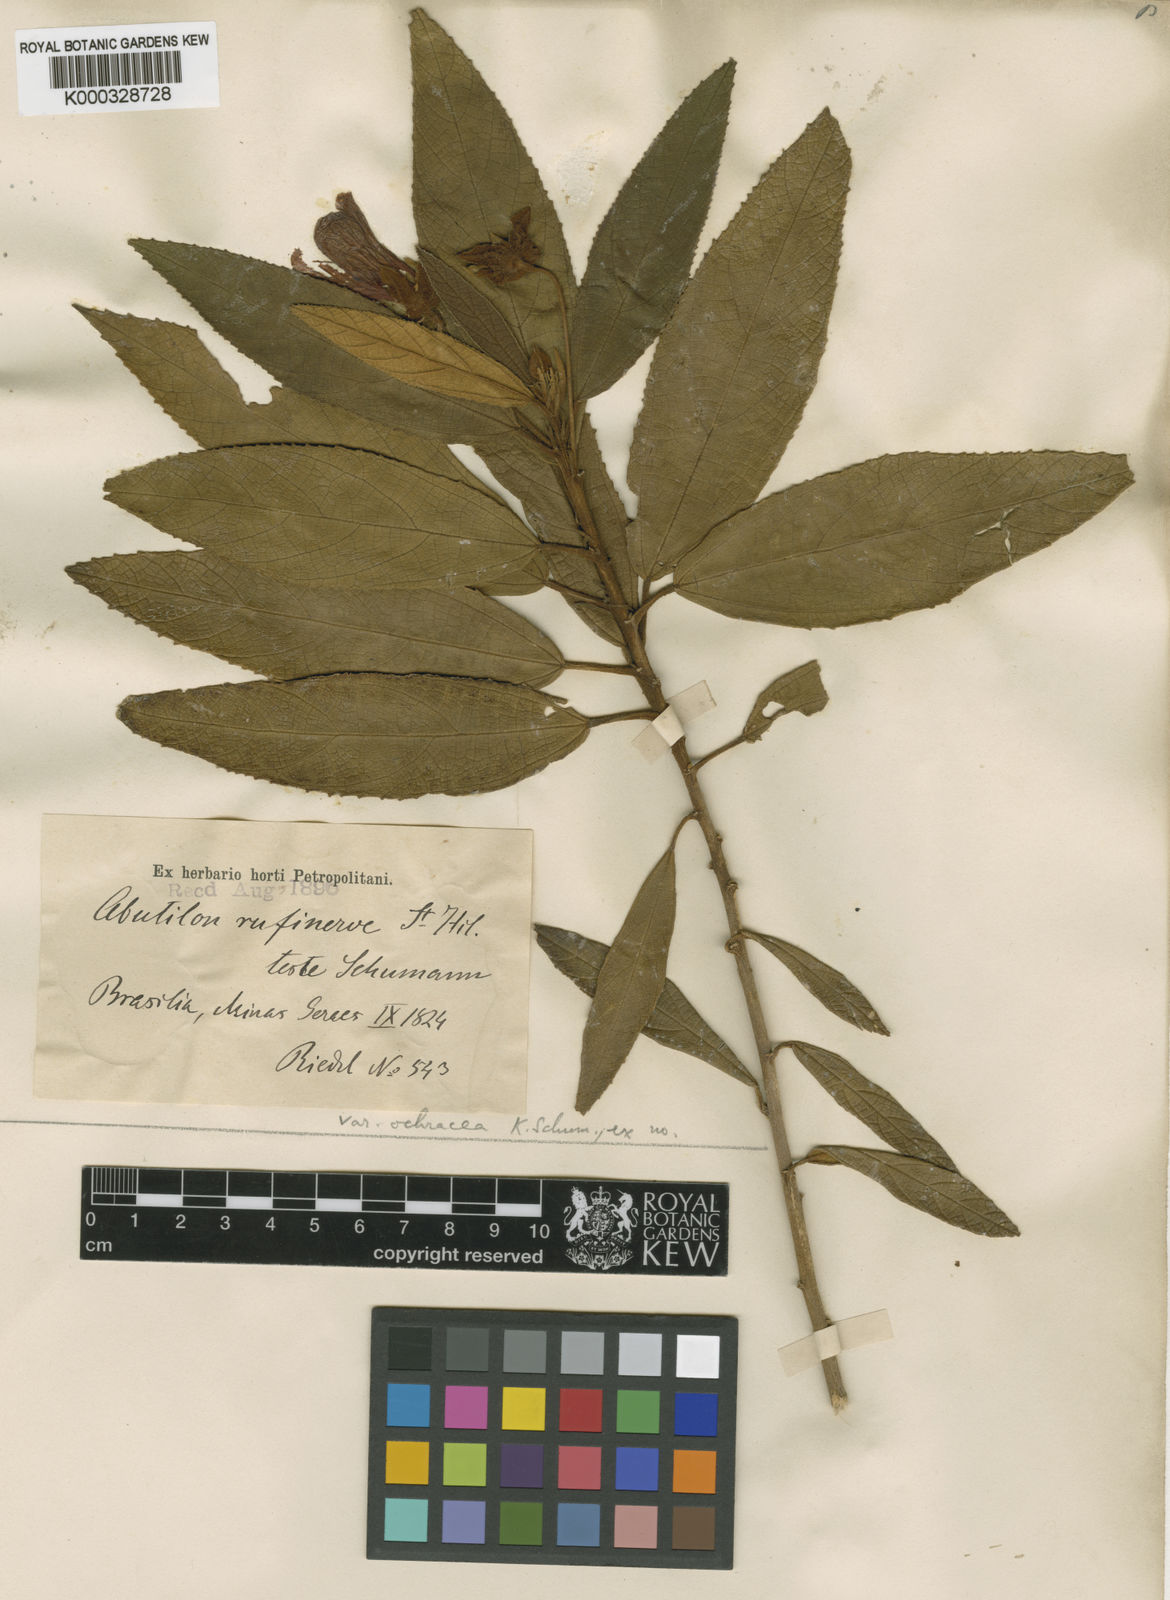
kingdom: Plantae
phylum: Tracheophyta
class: Magnoliopsida
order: Malvales
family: Malvaceae
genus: Callianthe
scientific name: Callianthe rufinerva
